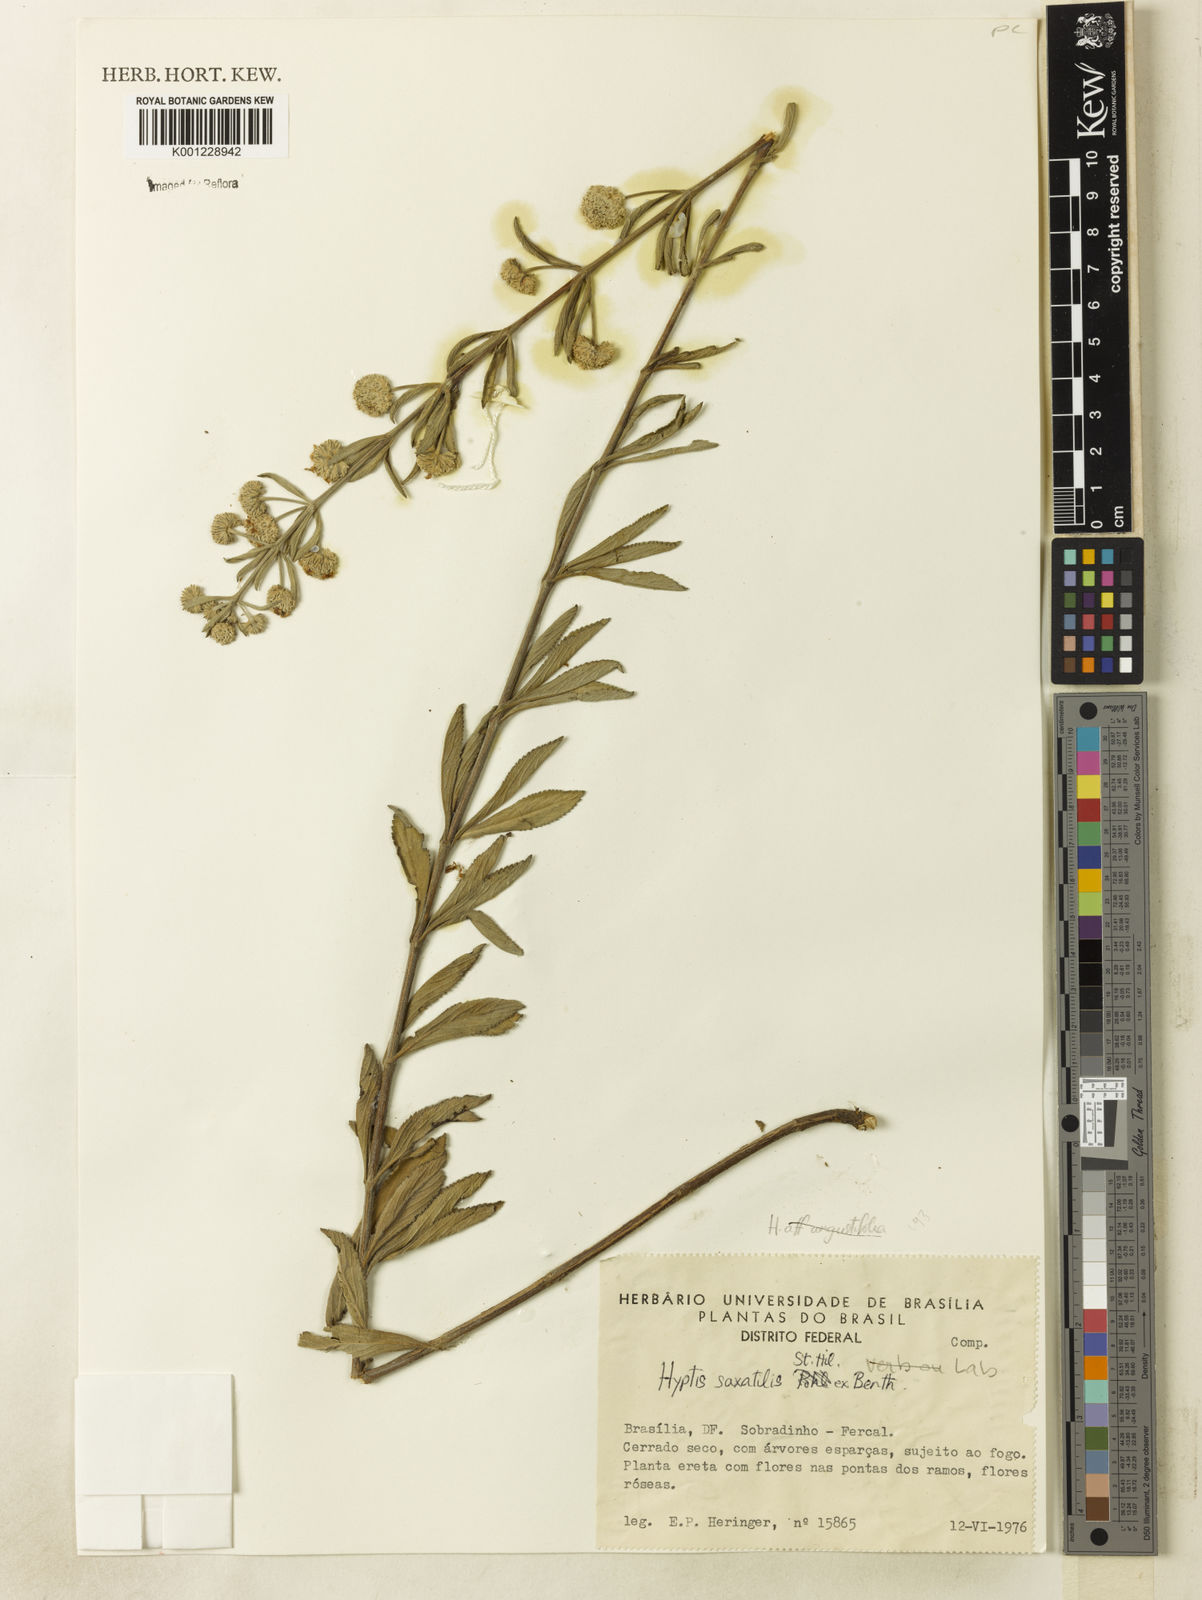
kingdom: Plantae
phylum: Tracheophyta
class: Magnoliopsida
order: Lamiales
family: Lamiaceae
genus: Hyptis
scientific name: Hyptis saxatilis
